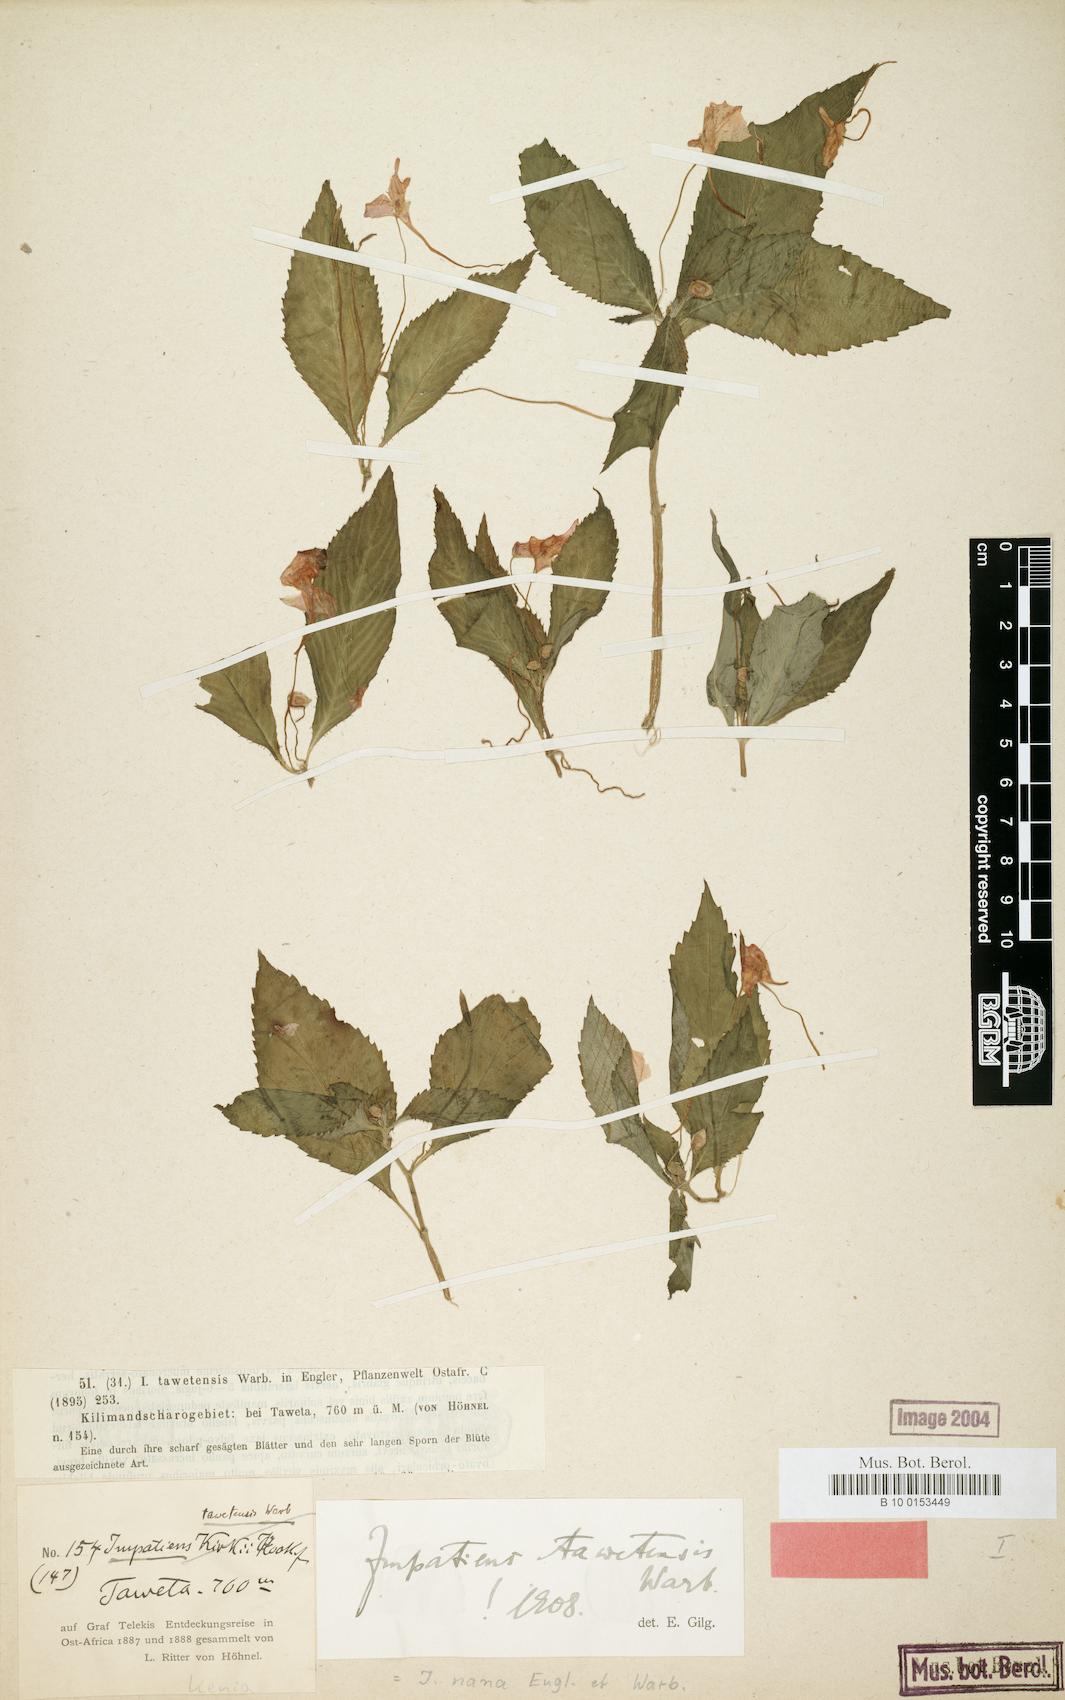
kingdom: Plantae
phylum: Tracheophyta
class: Magnoliopsida
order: Ericales
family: Balsaminaceae
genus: Impatiens
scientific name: Impatiens nana
